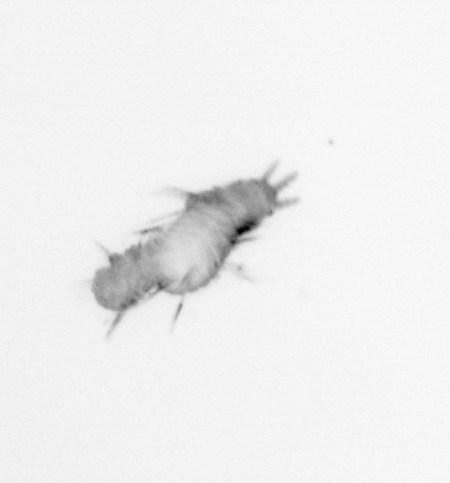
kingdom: Animalia
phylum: Annelida
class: Polychaeta
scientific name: Polychaeta
